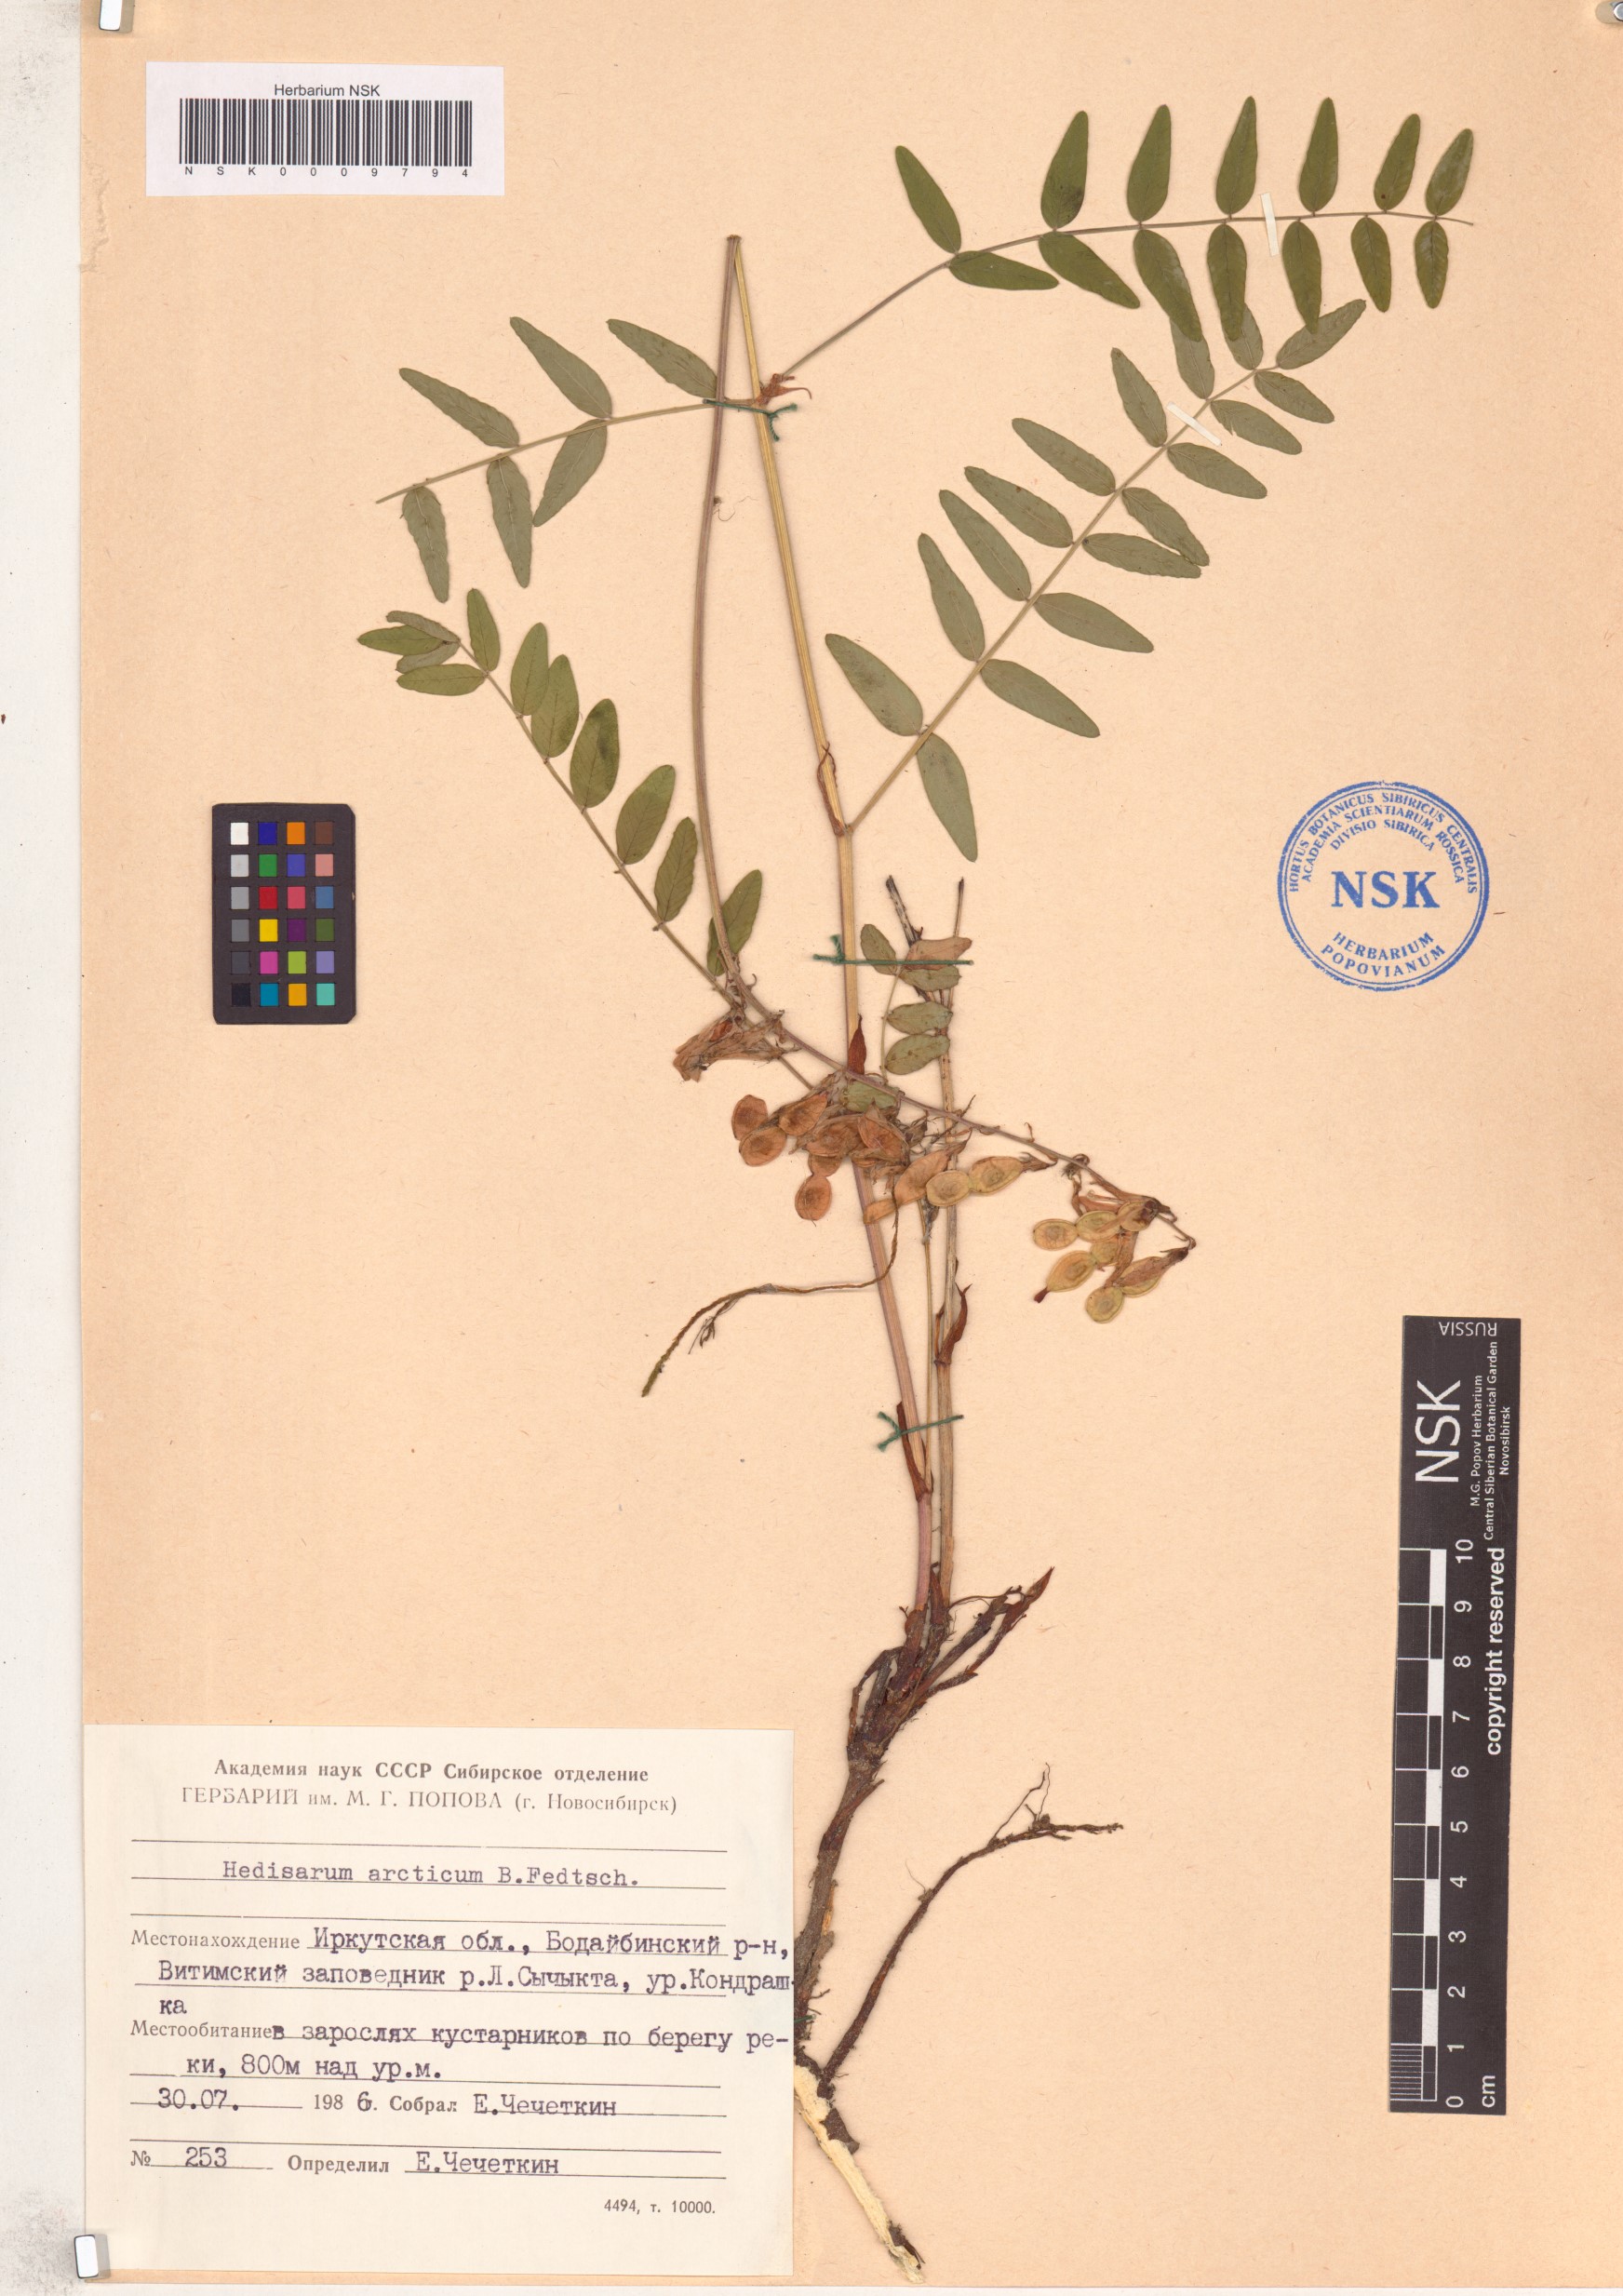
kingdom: Plantae
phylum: Tracheophyta
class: Magnoliopsida
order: Fabales
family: Fabaceae
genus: Hedysarum
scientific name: Hedysarum hedysaroides
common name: Alpine french-honeysuckle
